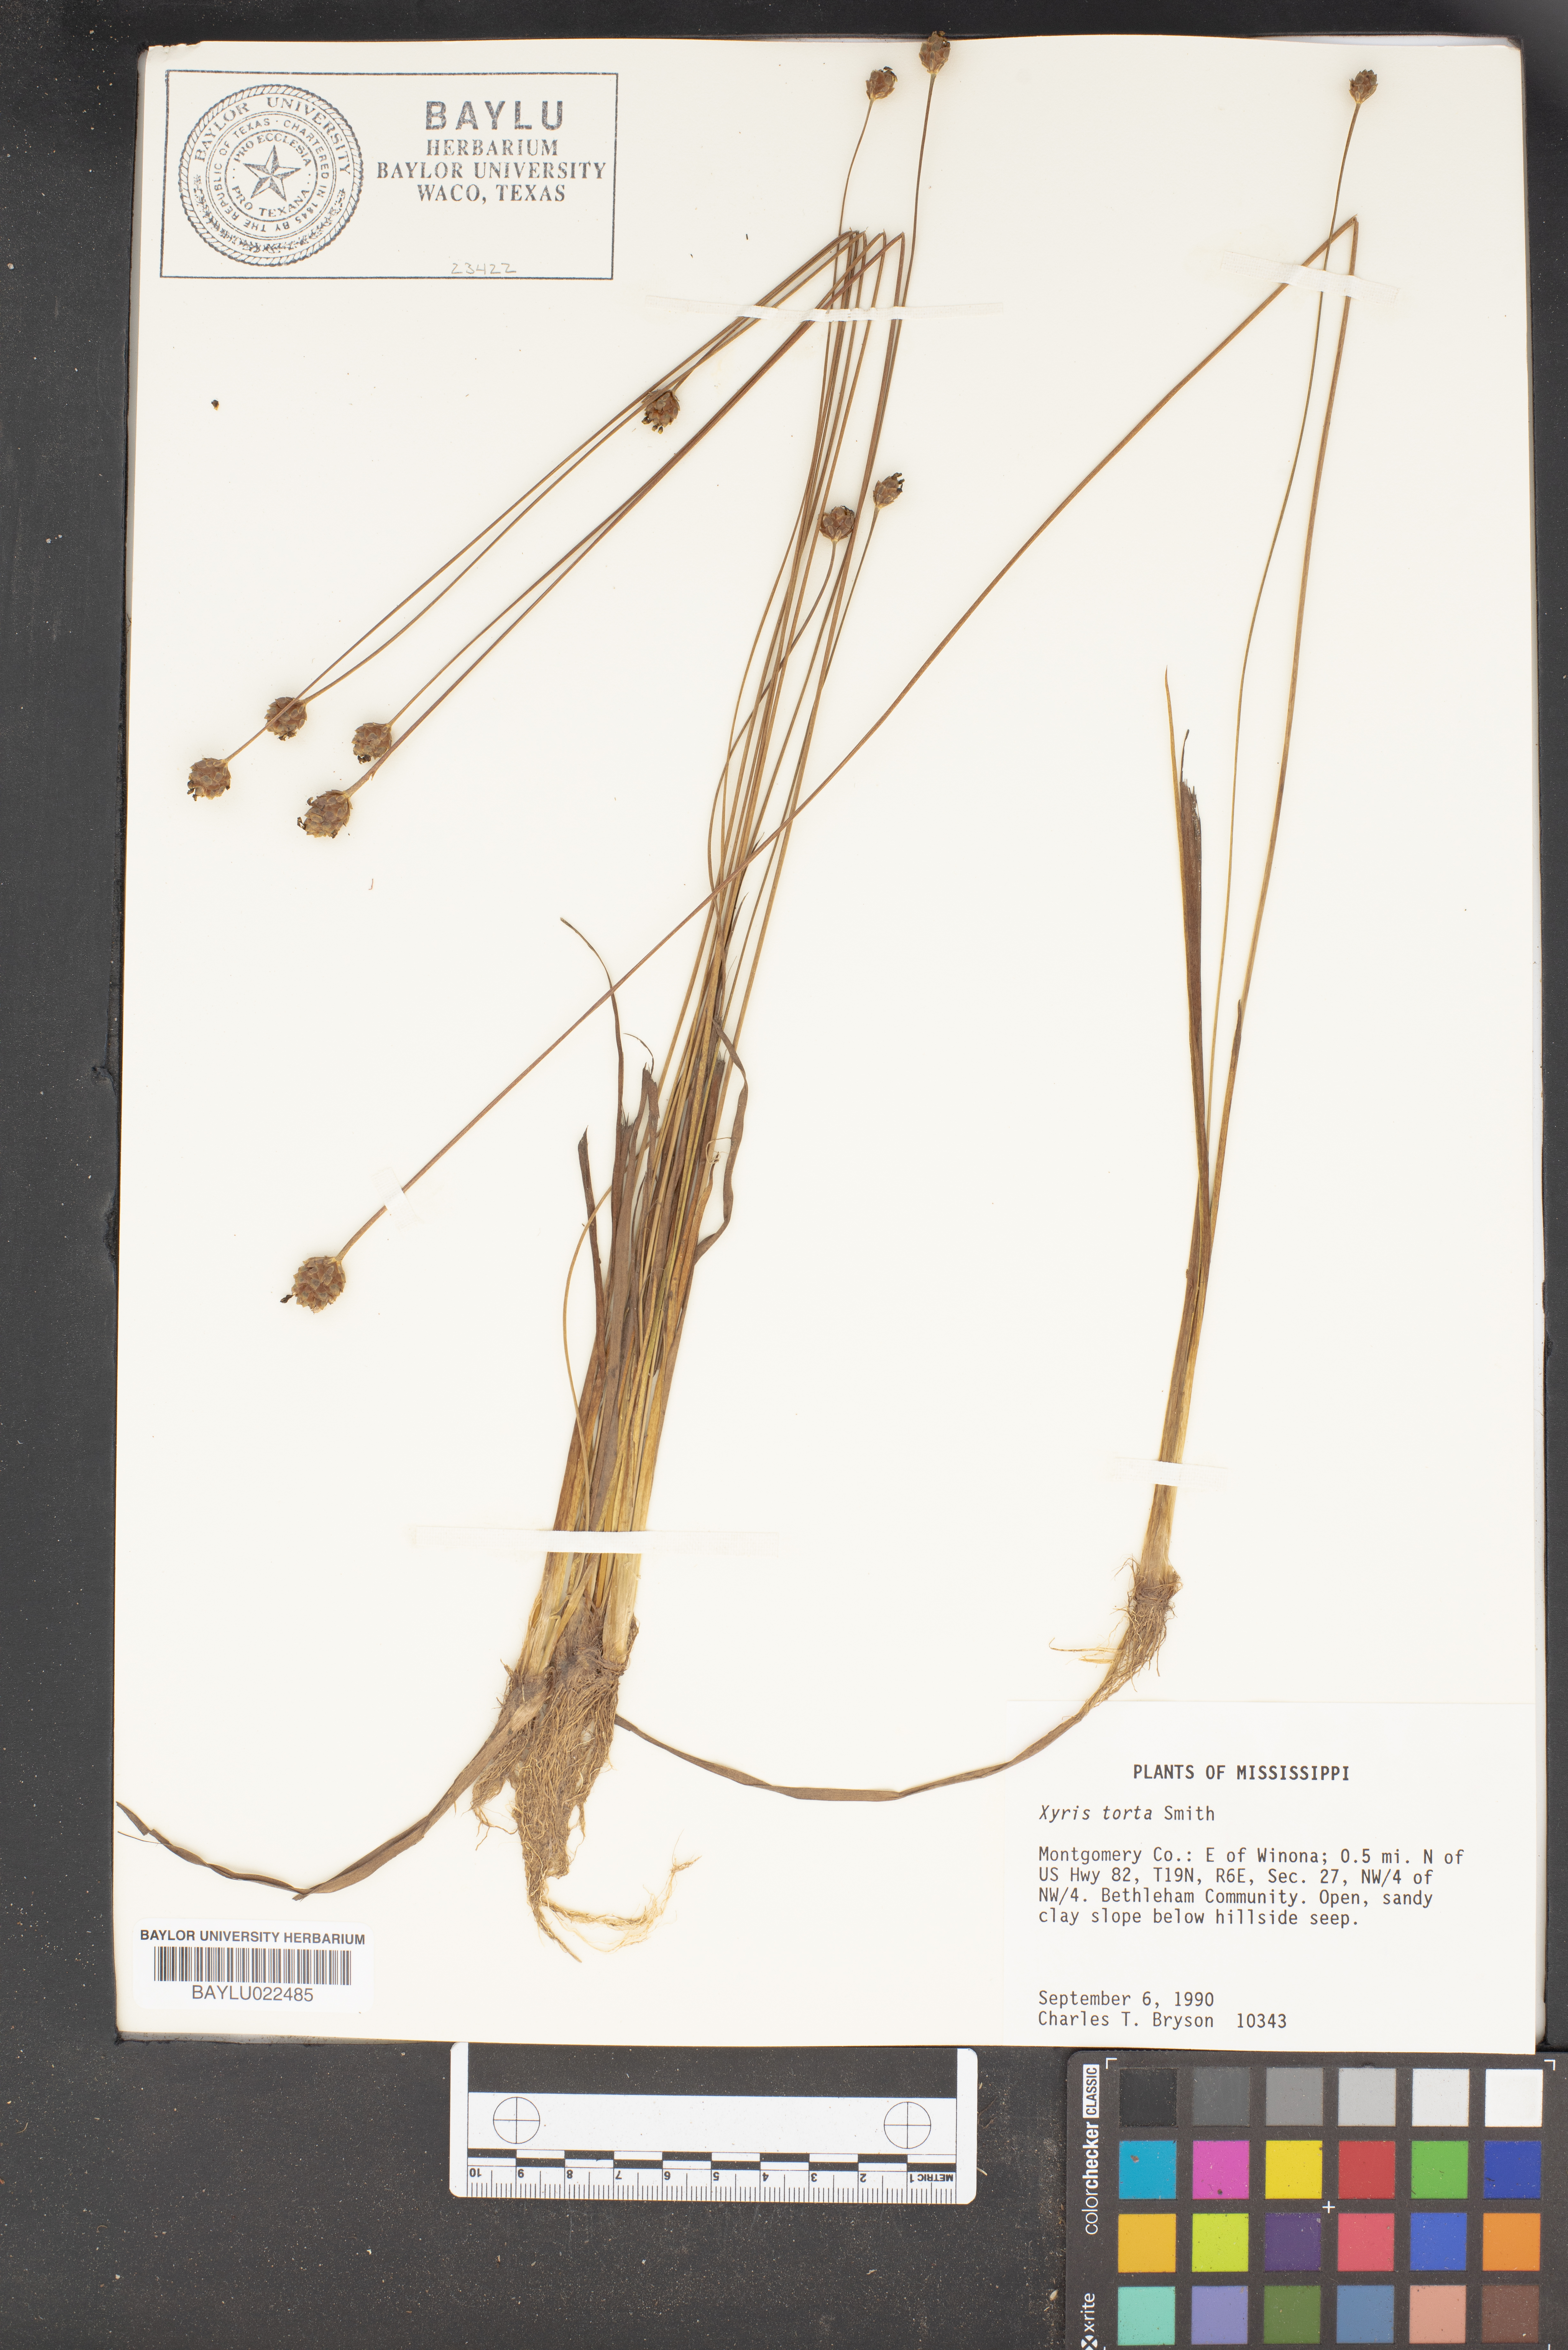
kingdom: Plantae
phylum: Tracheophyta
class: Liliopsida
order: Poales
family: Xyridaceae
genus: Xyris
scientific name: Xyris torta
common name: Common yelloweyed grass
